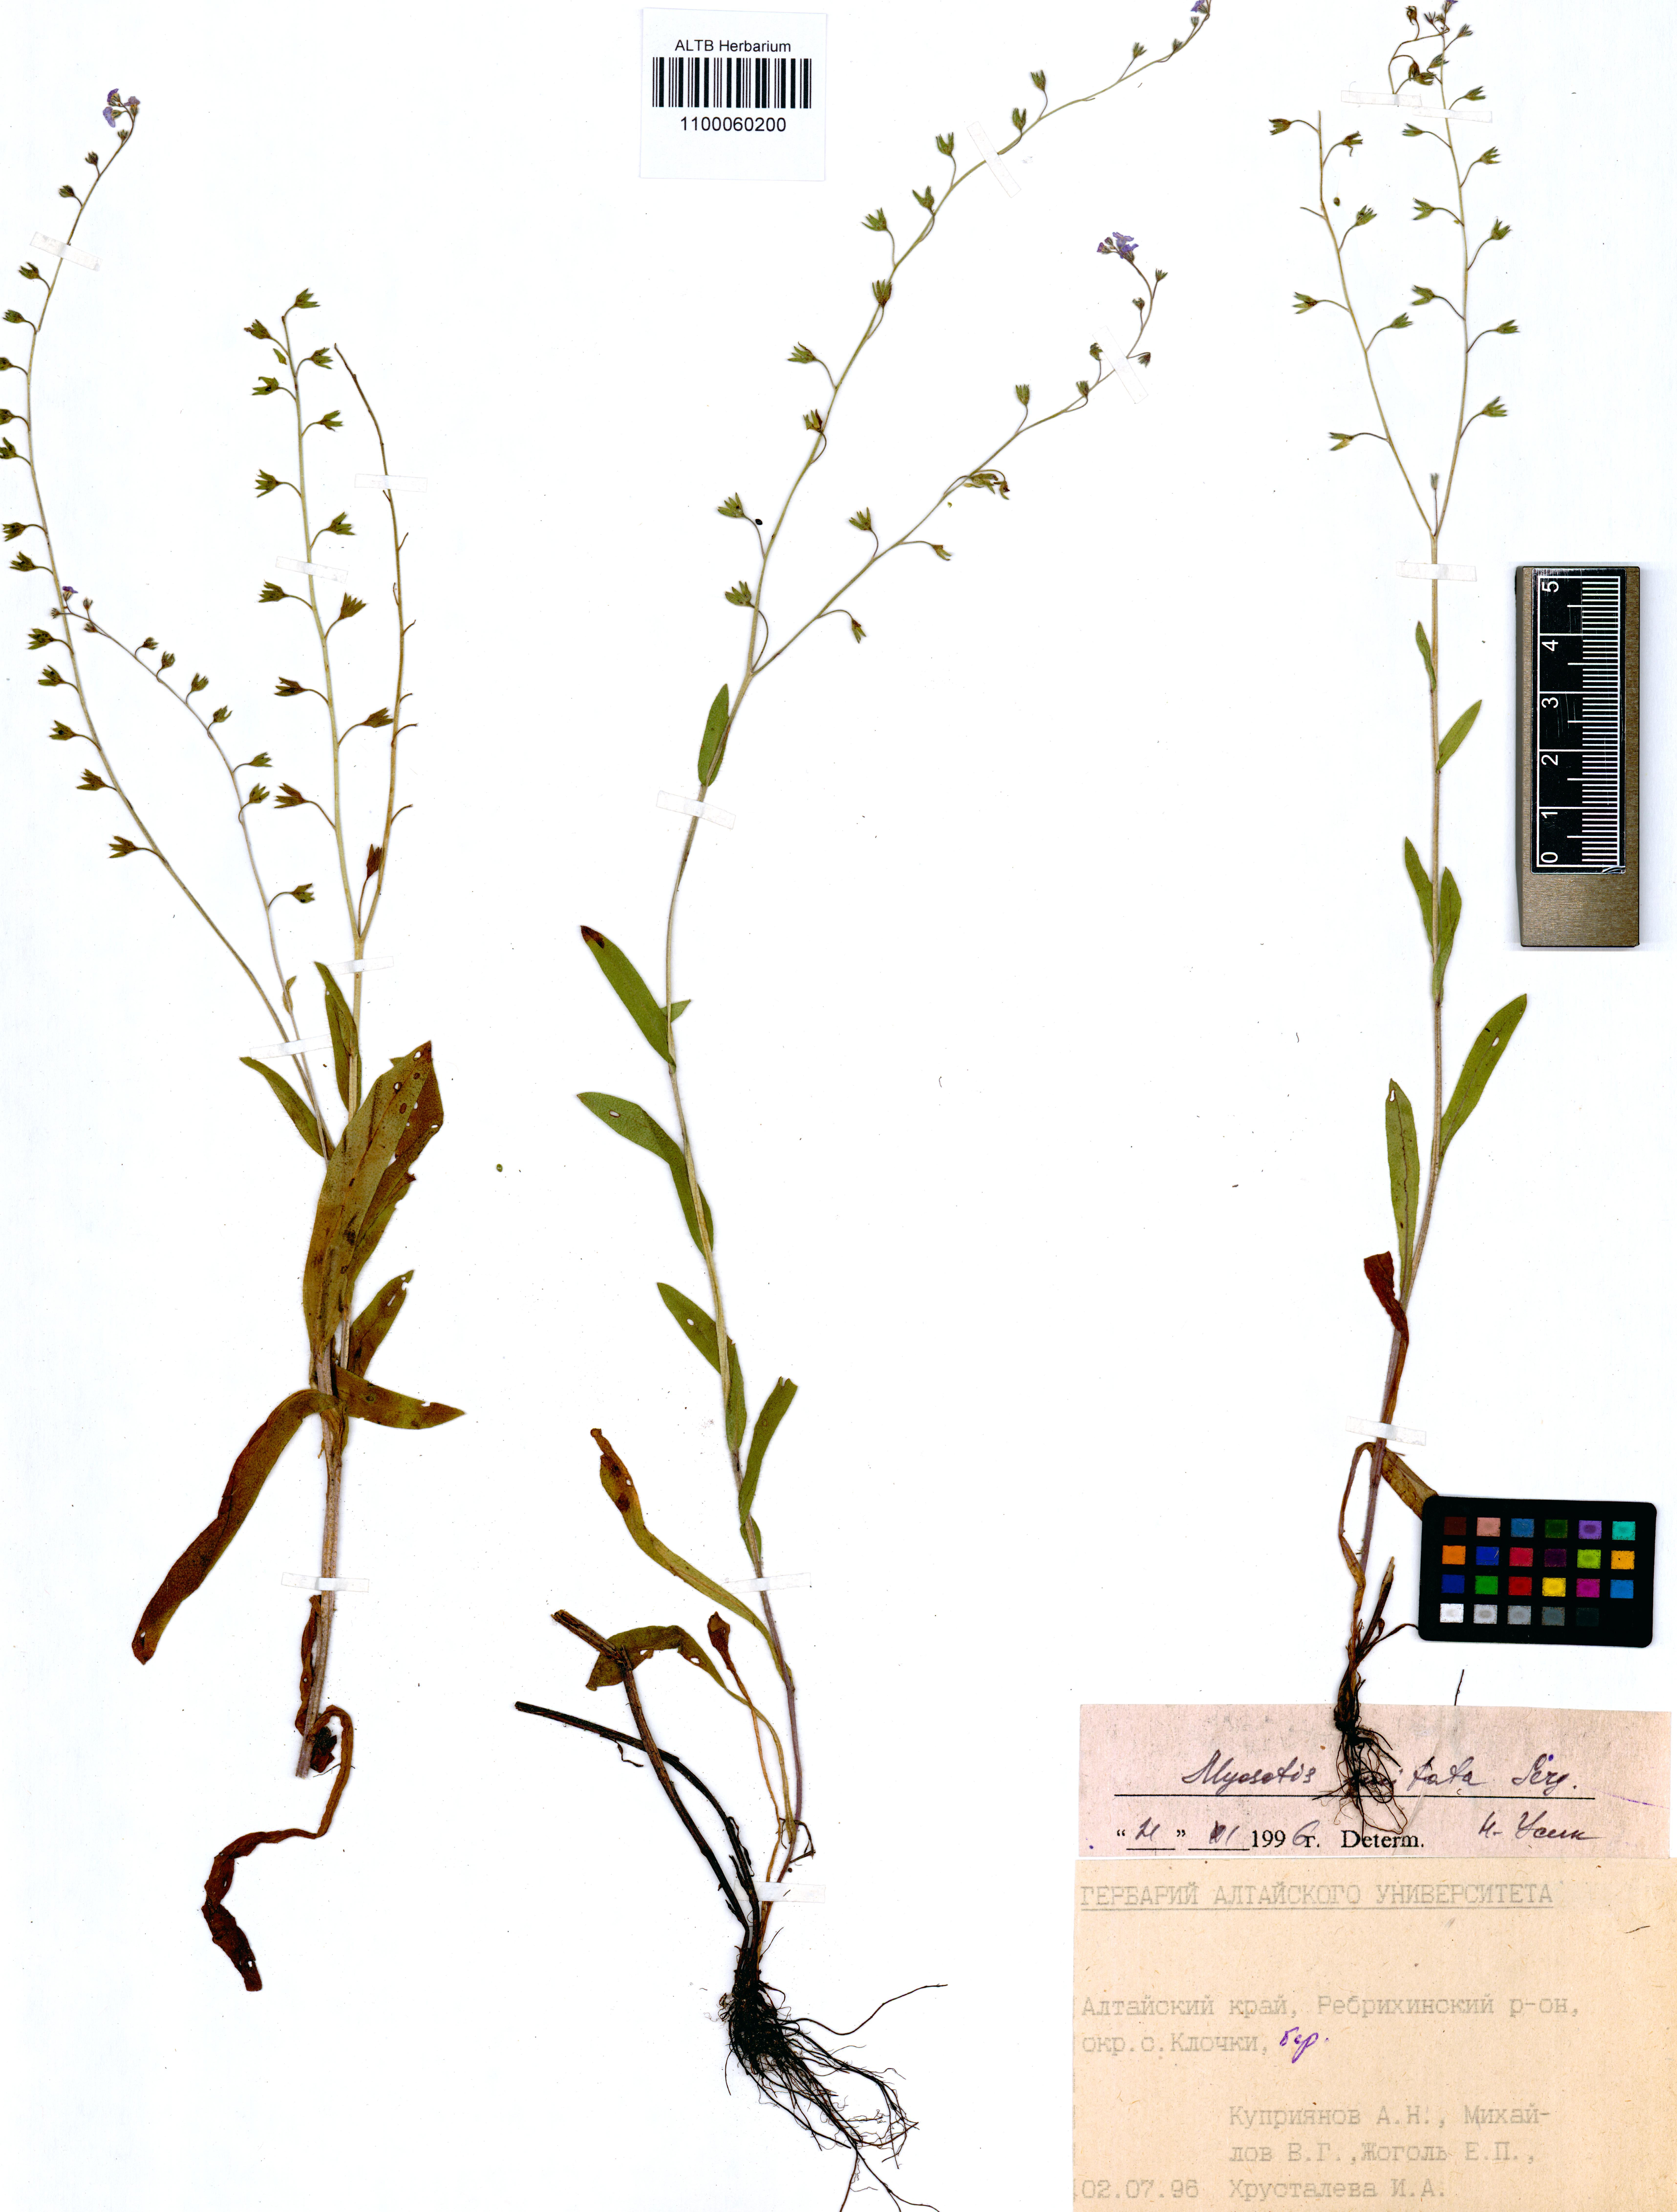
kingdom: Plantae
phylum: Tracheophyta
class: Magnoliopsida
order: Boraginales
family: Boraginaceae
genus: Myosotis
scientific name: Myosotis imitata
